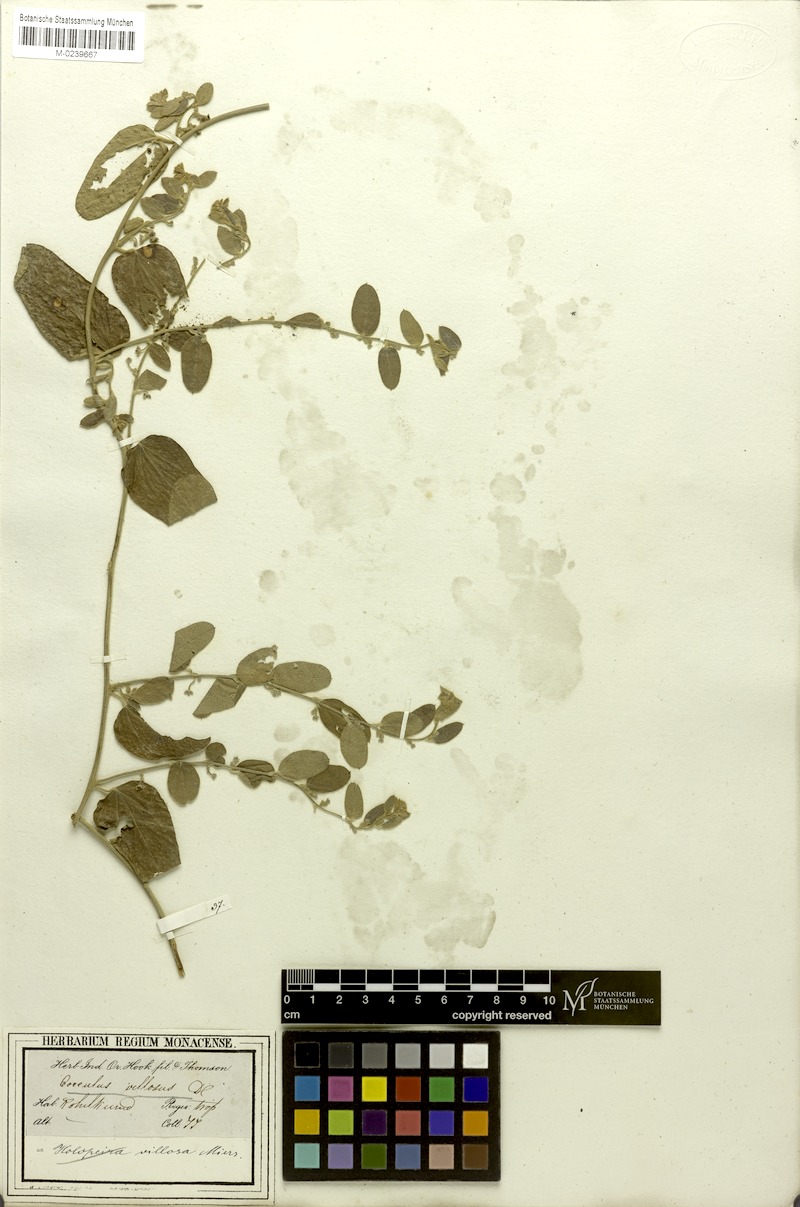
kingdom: Plantae
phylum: Tracheophyta
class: Magnoliopsida
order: Ranunculales
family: Menispermaceae
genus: Cocculus
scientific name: Cocculus hirsutus
